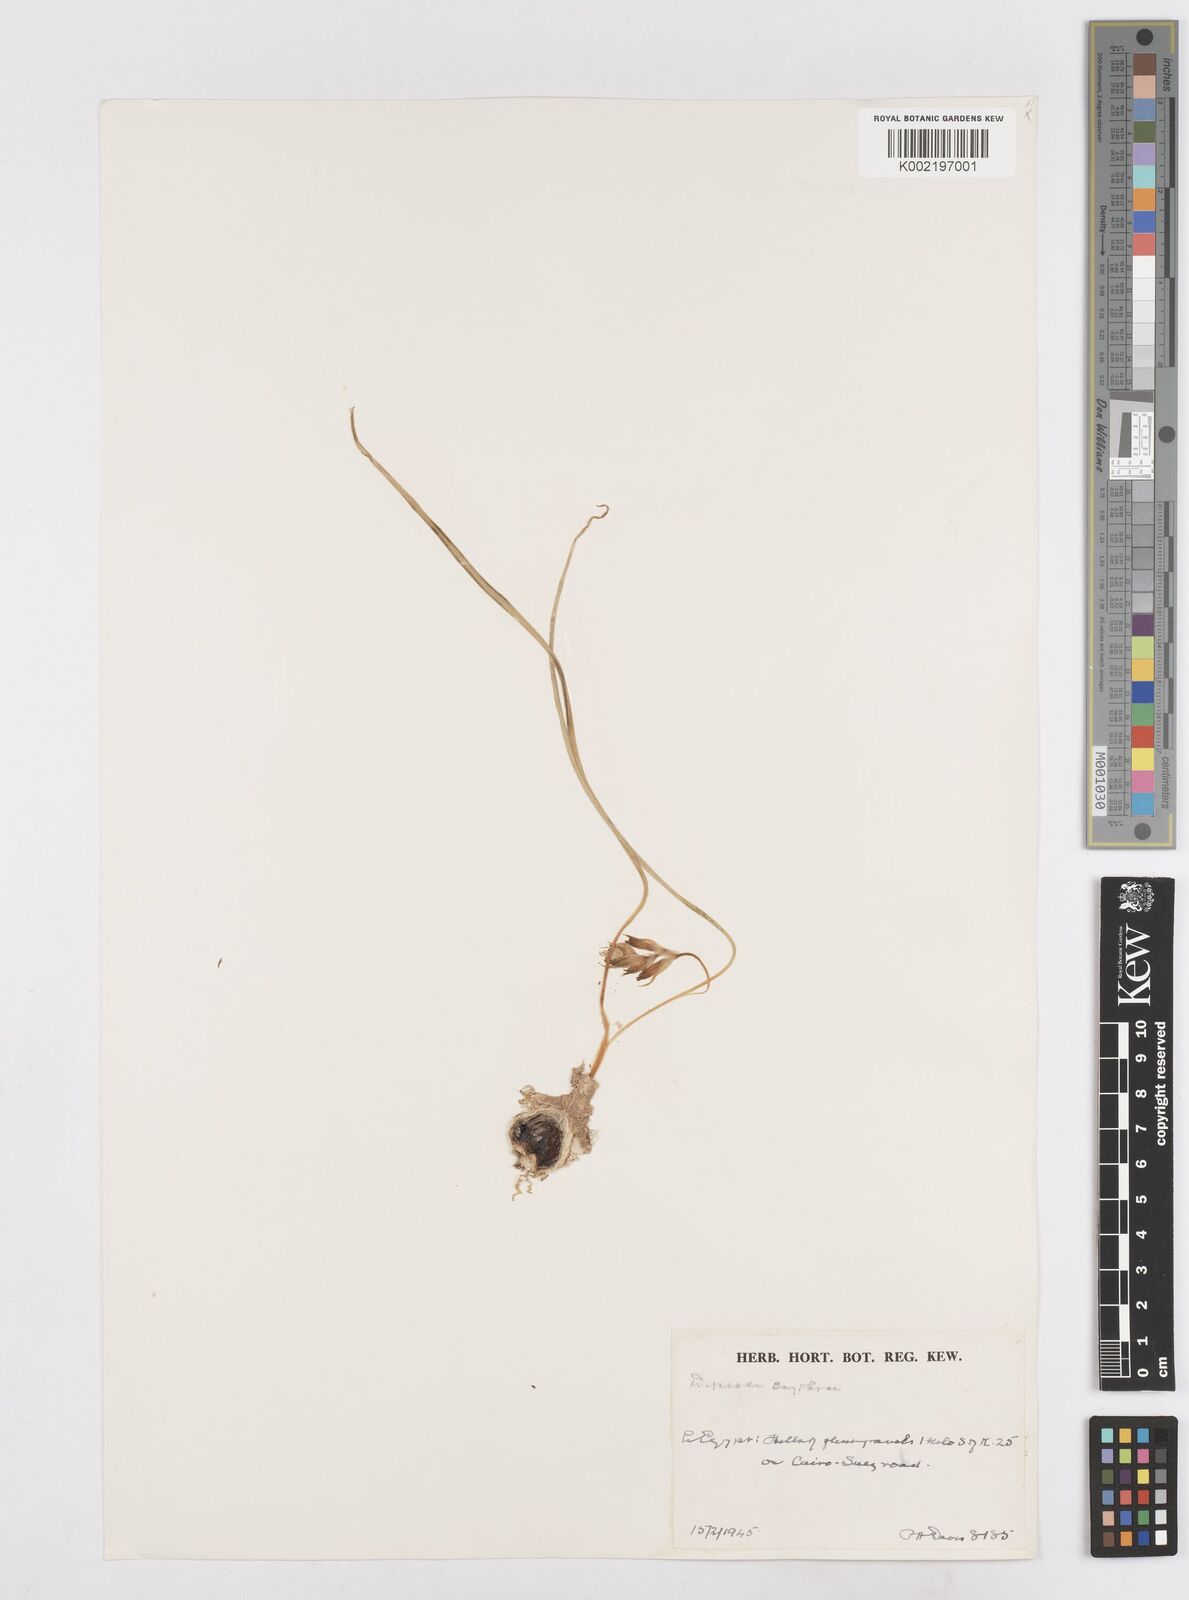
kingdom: Plantae
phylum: Tracheophyta
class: Liliopsida
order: Asparagales
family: Asparagaceae
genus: Dipcadi
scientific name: Dipcadi erythraeum
